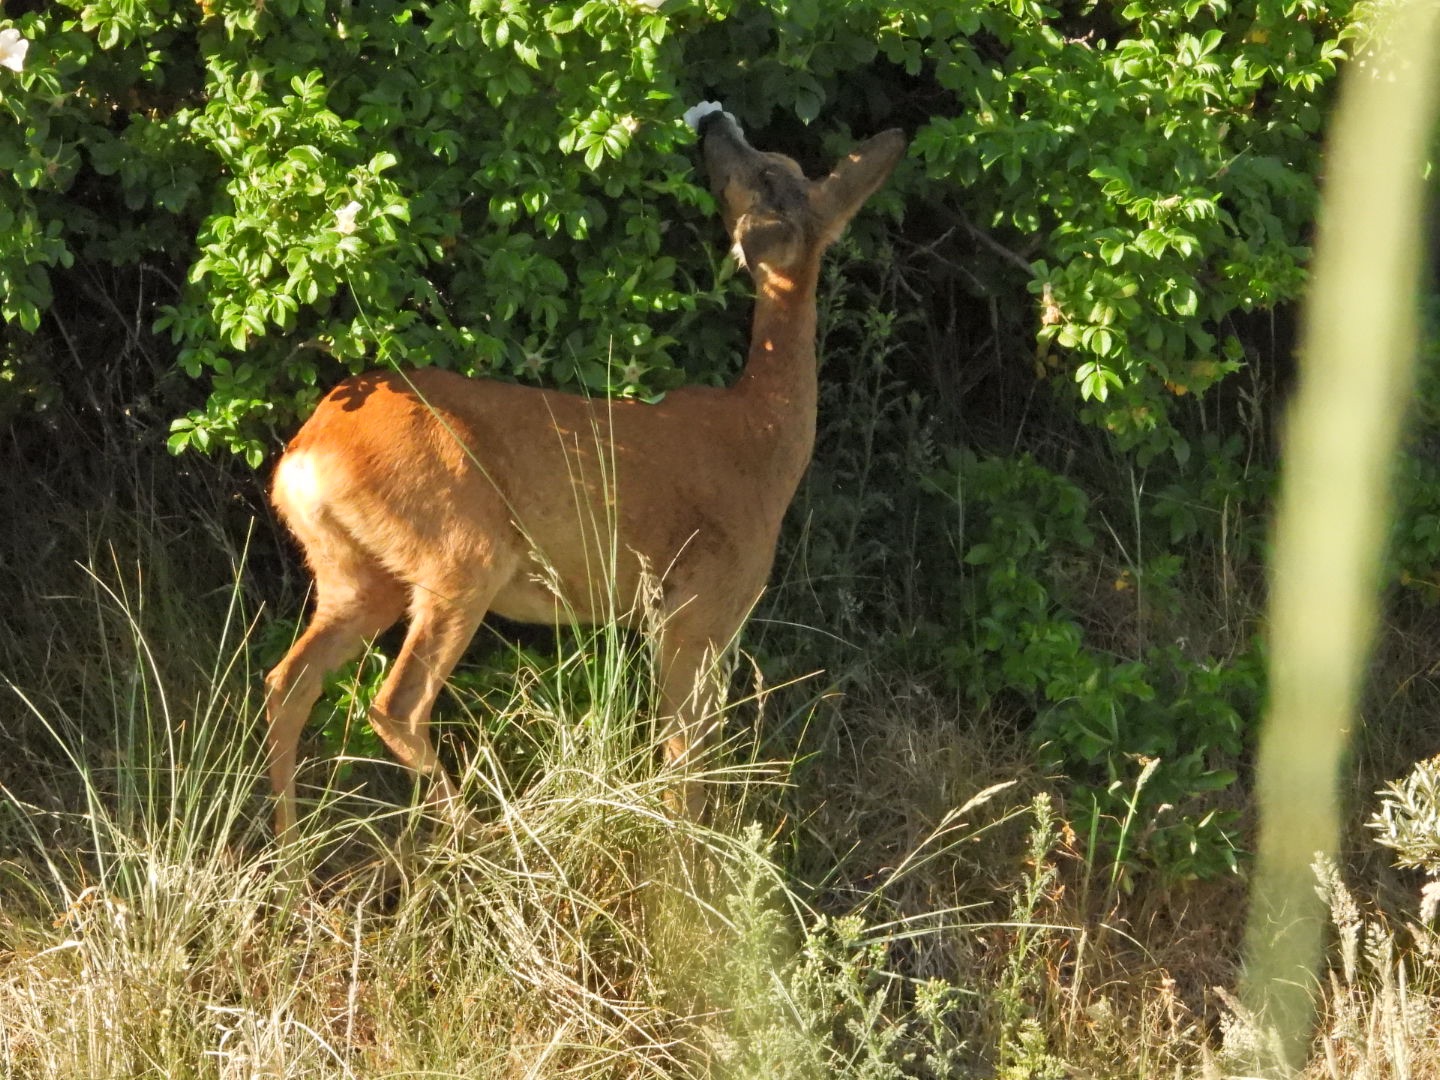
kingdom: Animalia
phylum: Chordata
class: Mammalia
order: Artiodactyla
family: Cervidae
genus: Capreolus
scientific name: Capreolus capreolus
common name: Rådyr
